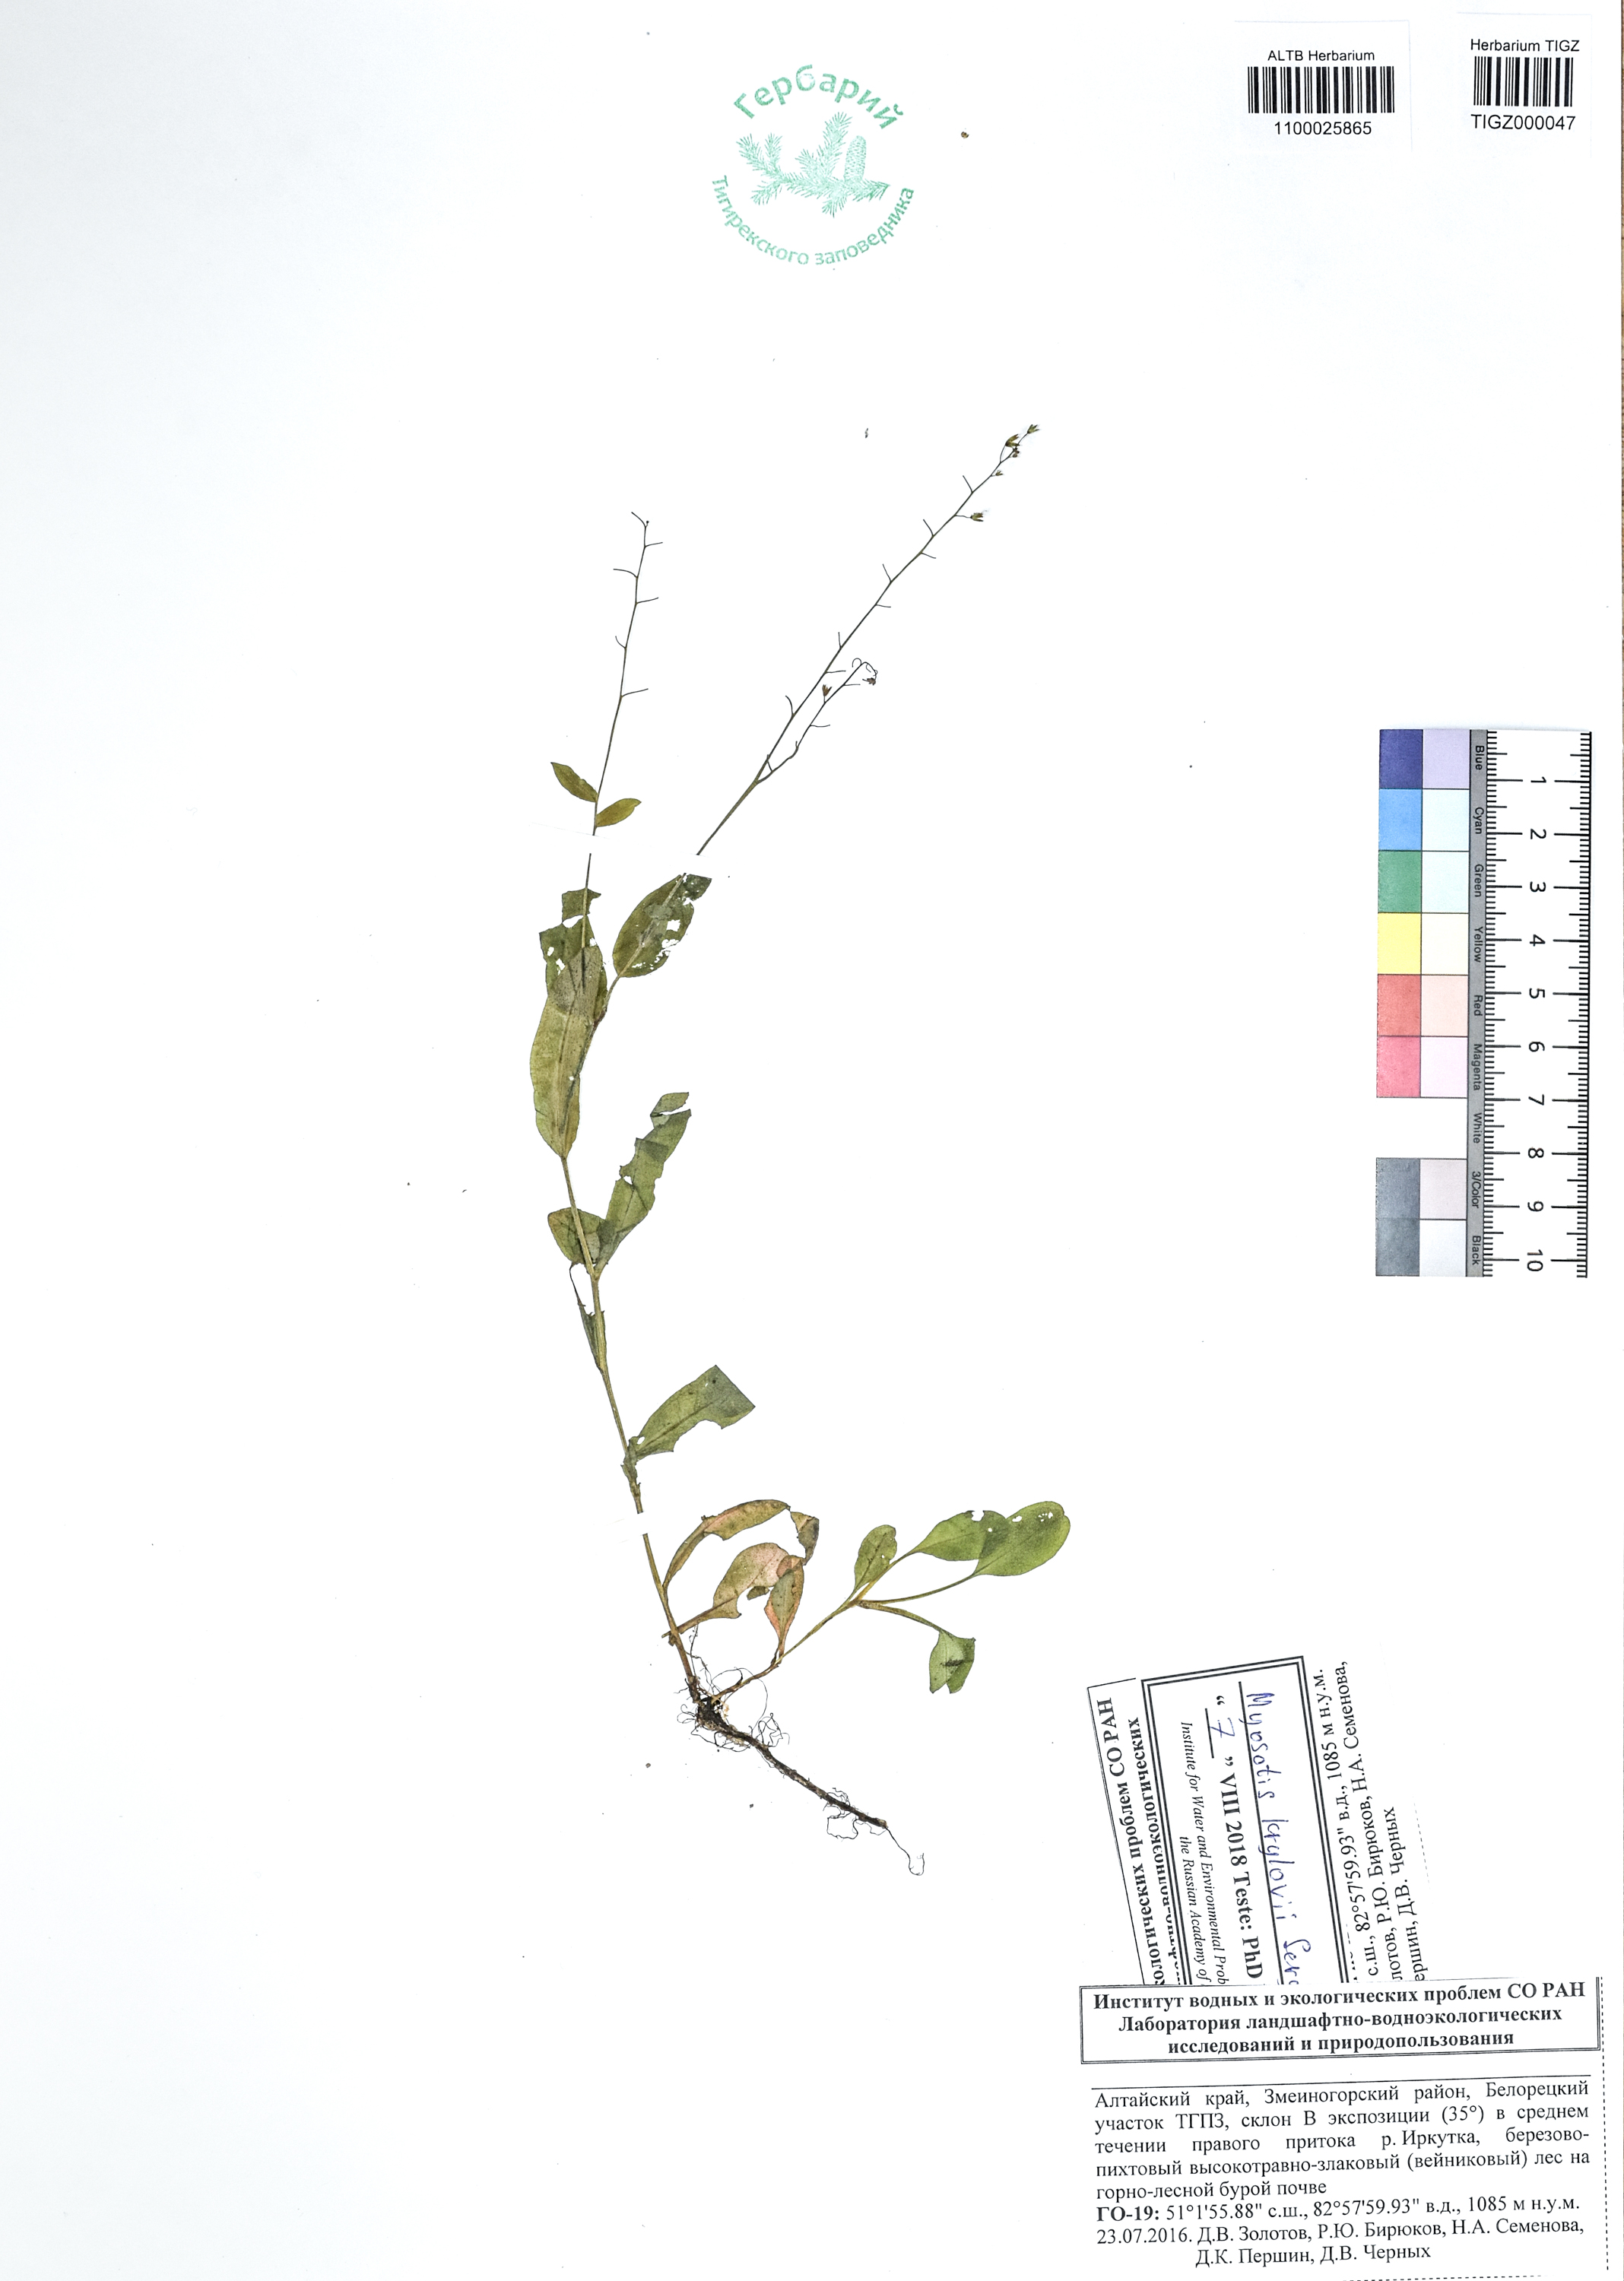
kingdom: Plantae
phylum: Tracheophyta
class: Magnoliopsida
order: Boraginales
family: Boraginaceae
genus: Myosotis
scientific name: Myosotis krylovii
